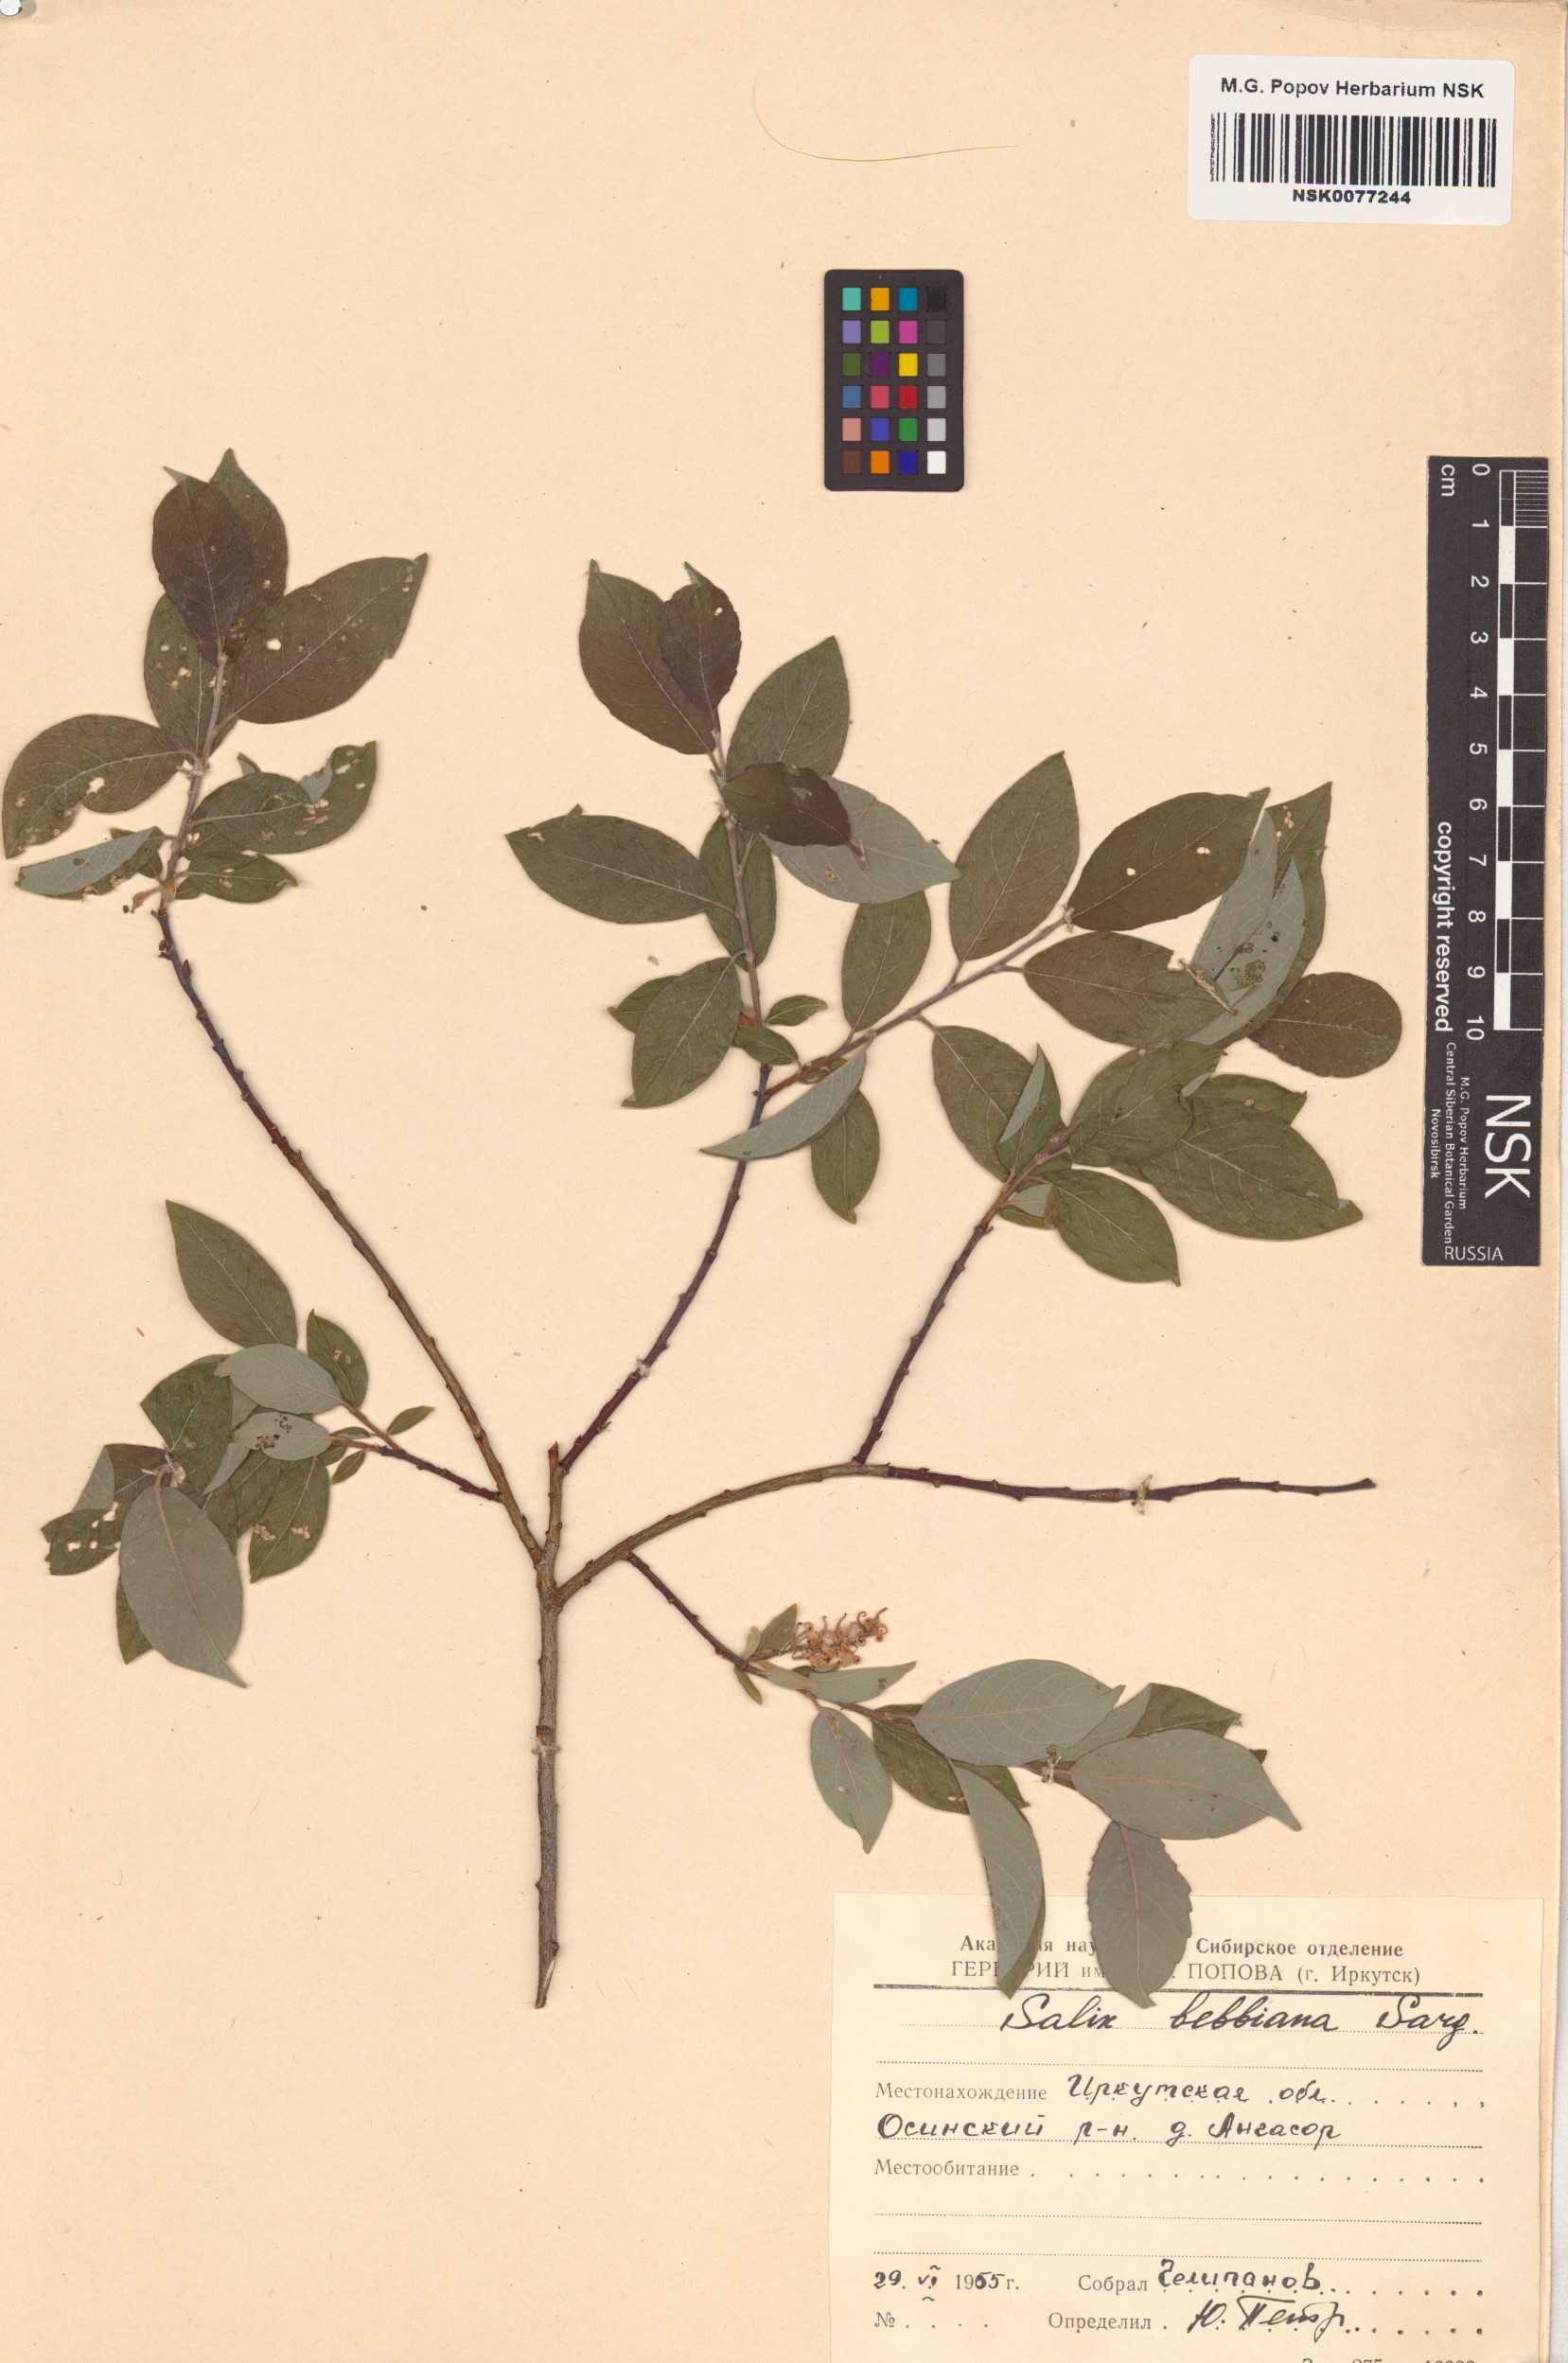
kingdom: Plantae
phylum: Tracheophyta
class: Magnoliopsida
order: Malpighiales
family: Salicaceae
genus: Salix
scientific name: Salix bebbiana
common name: Bebb's willow
